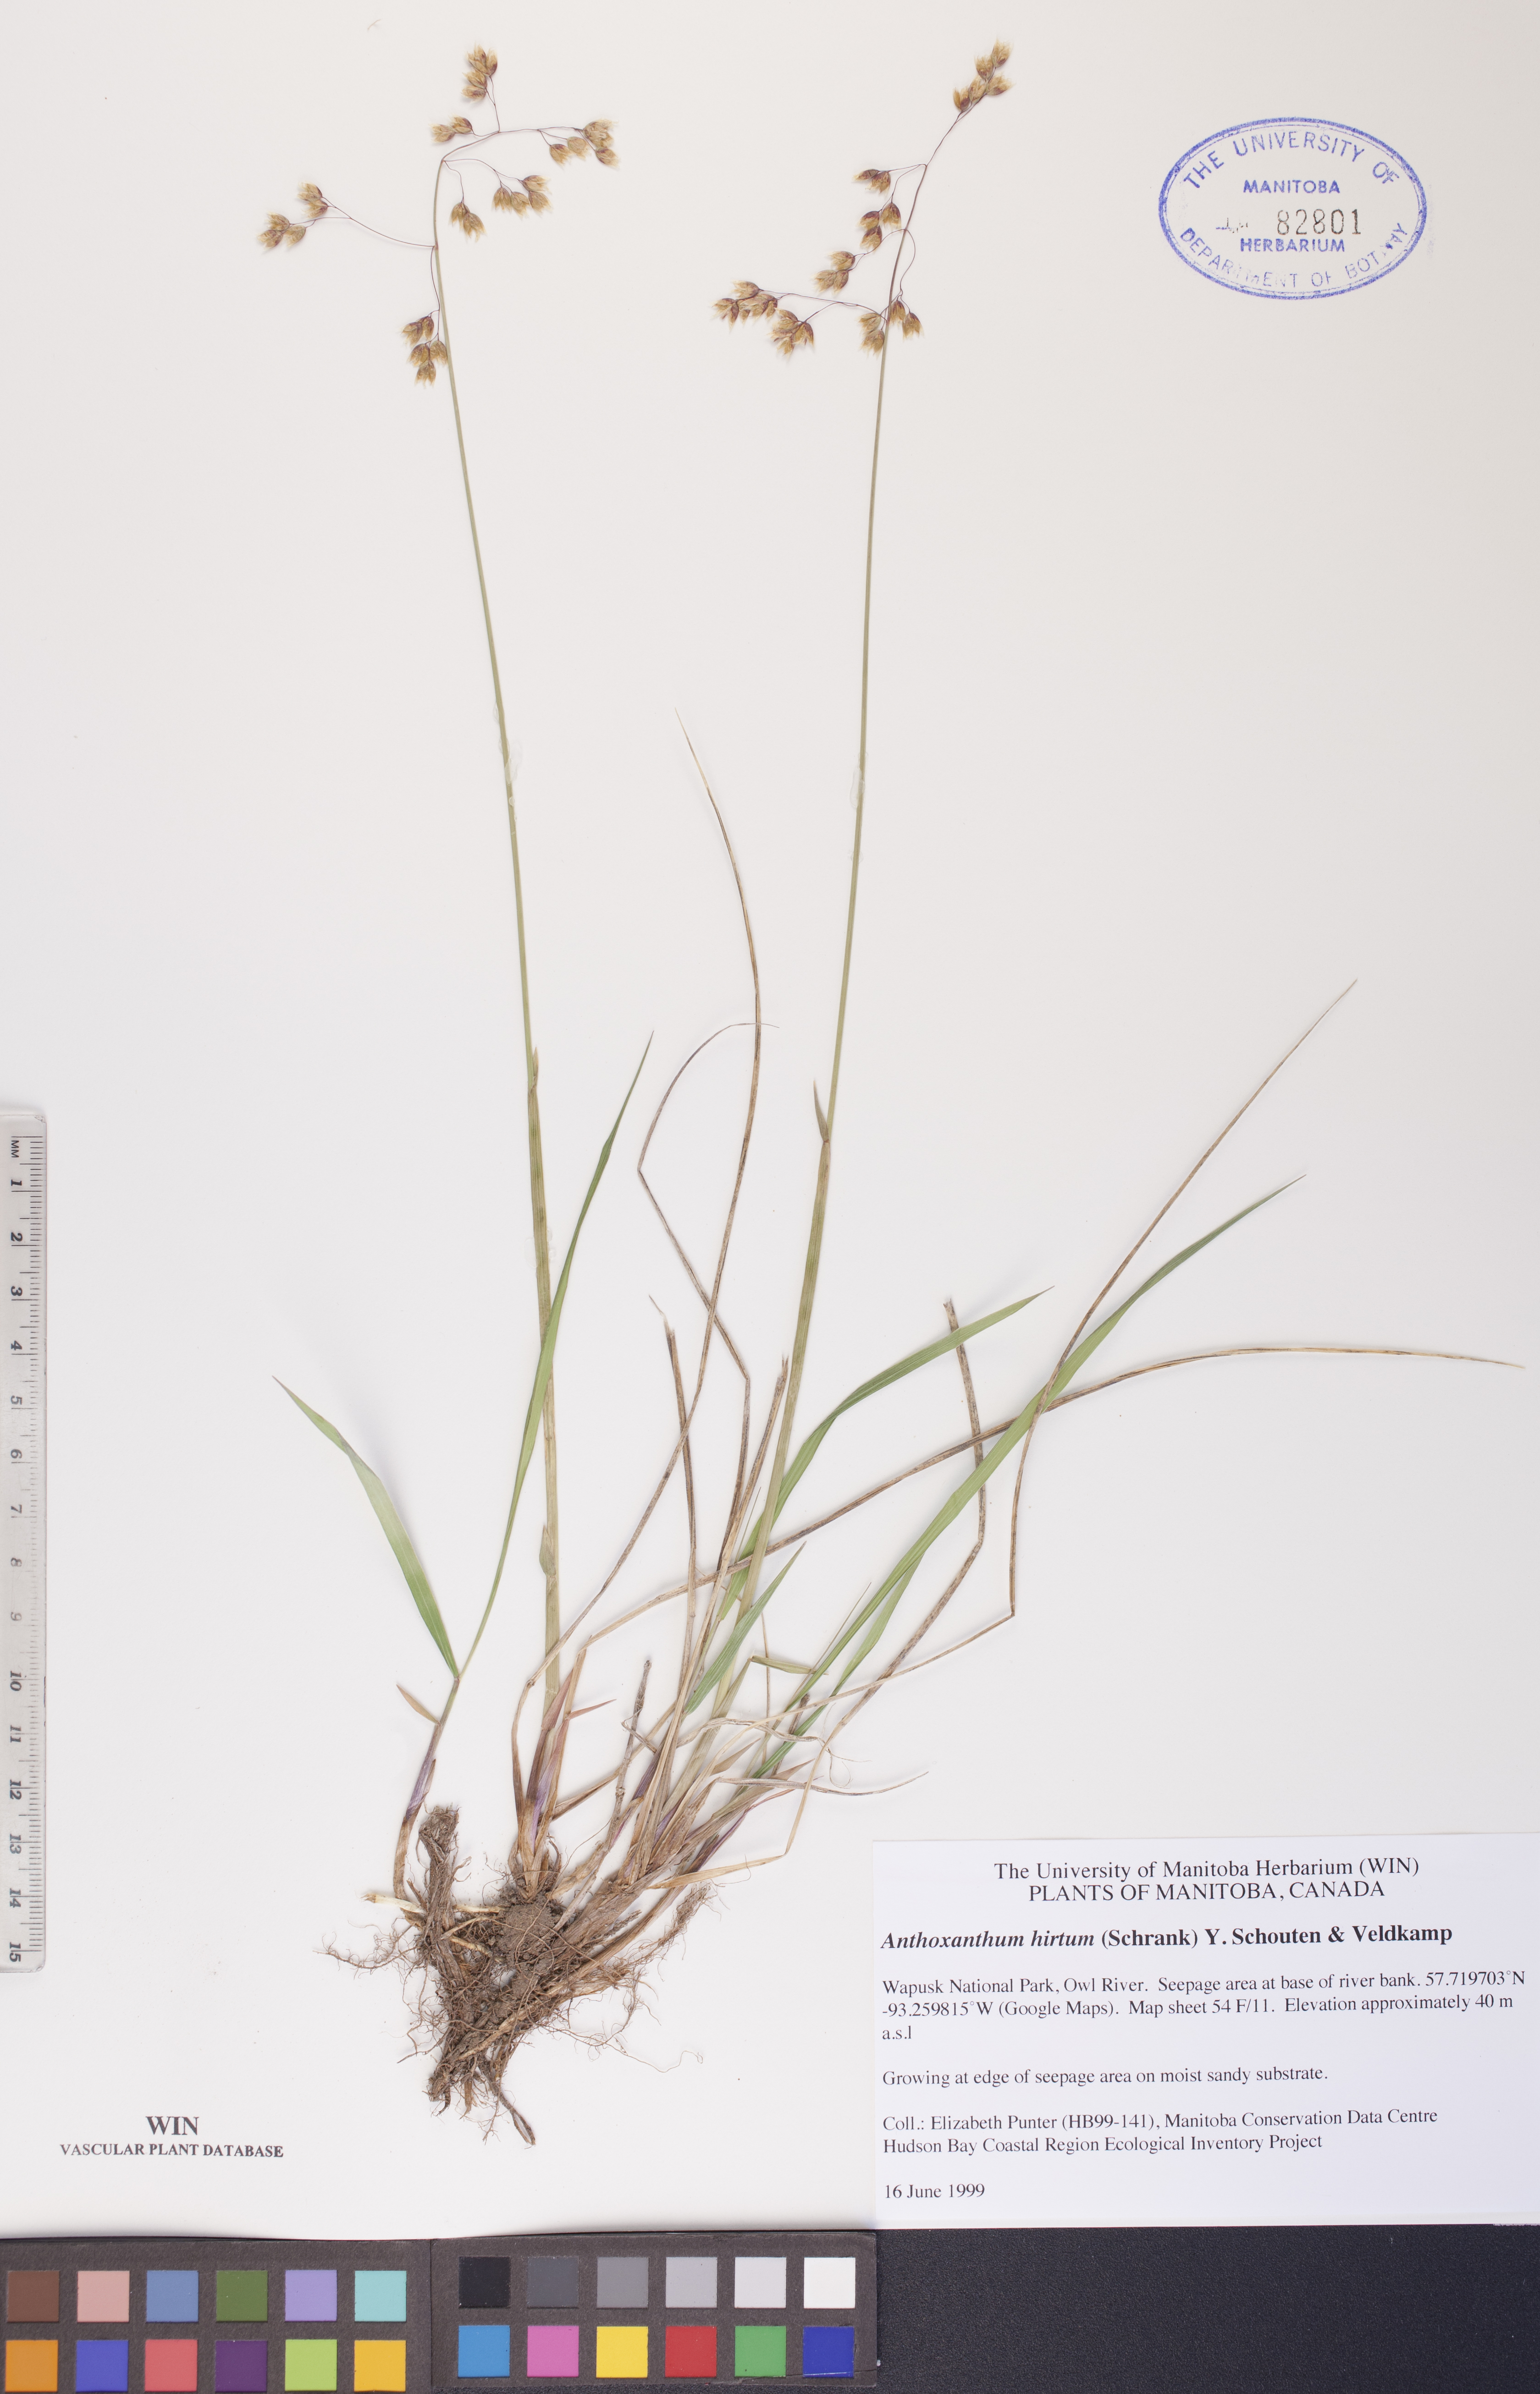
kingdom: Plantae
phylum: Tracheophyta
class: Liliopsida
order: Poales
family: Poaceae
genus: Anthoxanthum
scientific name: Anthoxanthum nitens
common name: Holy grass
